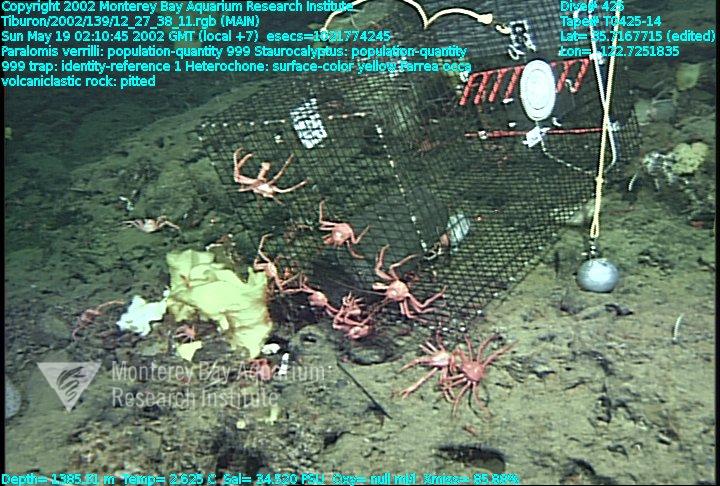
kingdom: Animalia
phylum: Porifera
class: Hexactinellida
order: Sceptrulophora
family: Aphrocallistidae
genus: Heterochone
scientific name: Heterochone
